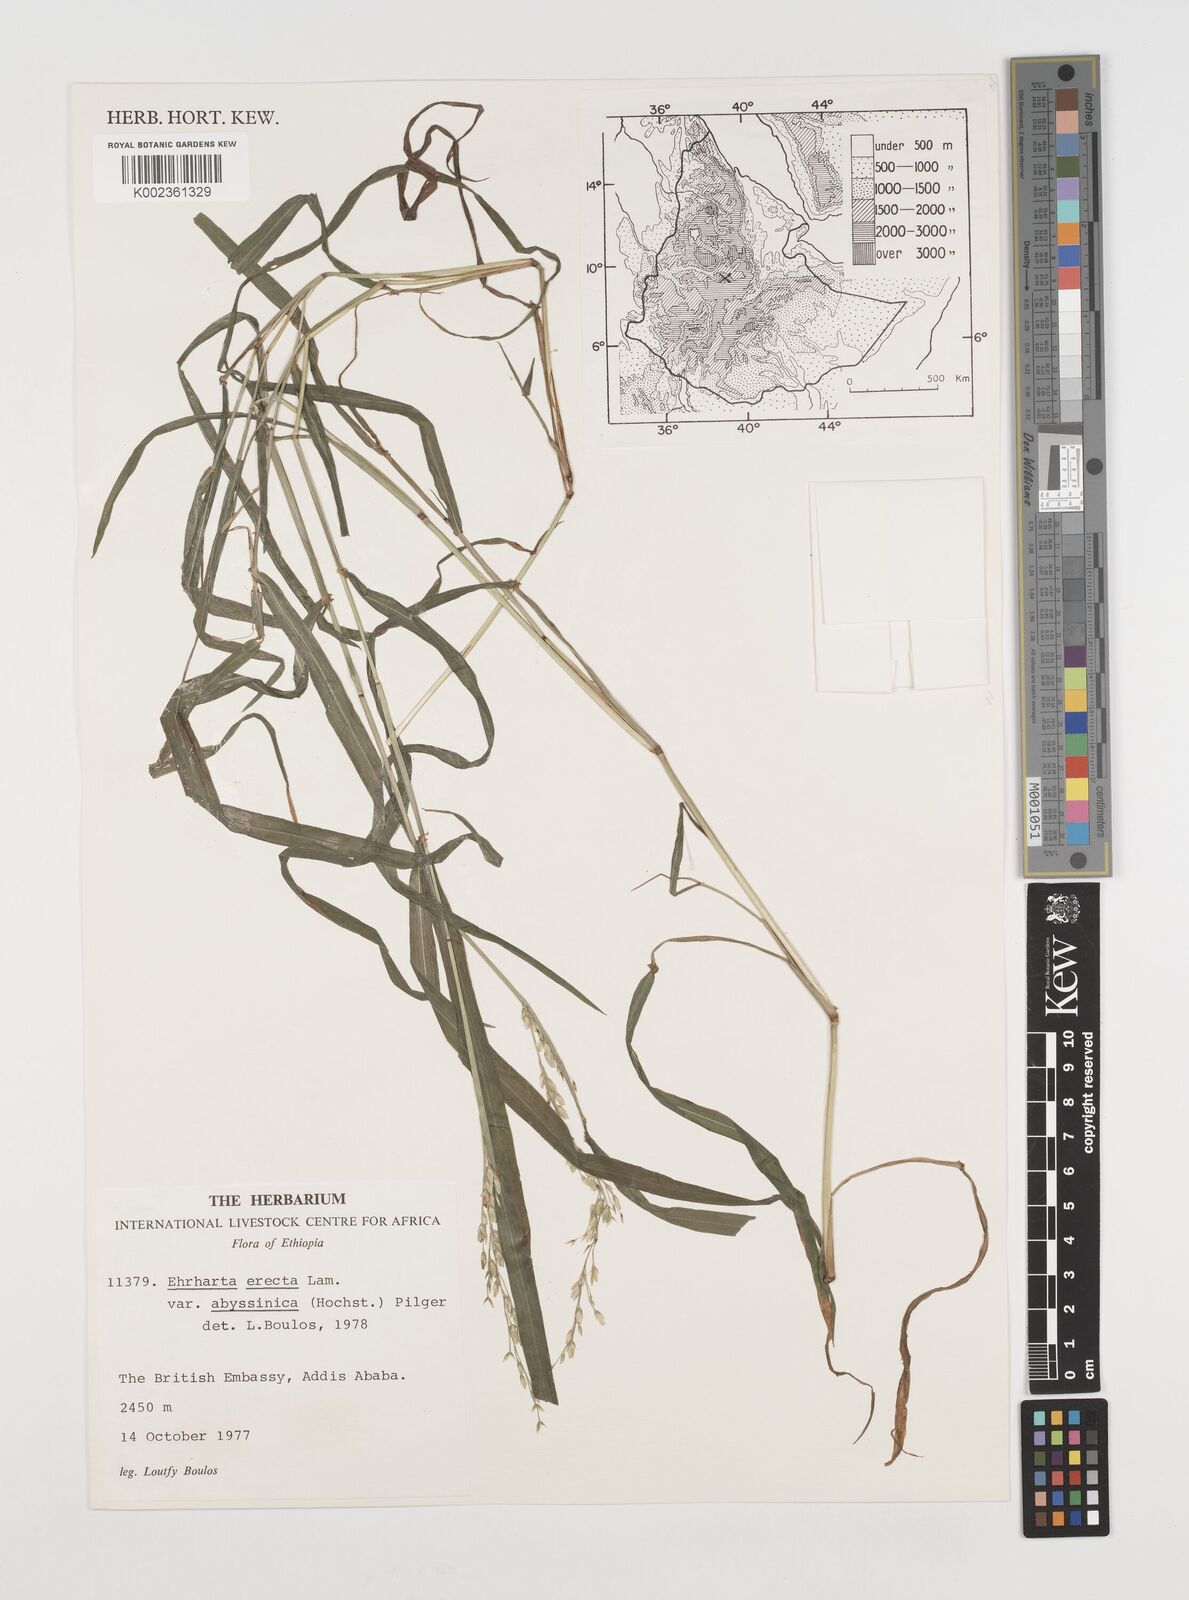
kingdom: Plantae
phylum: Tracheophyta
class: Liliopsida
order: Poales
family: Poaceae
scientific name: Poaceae
